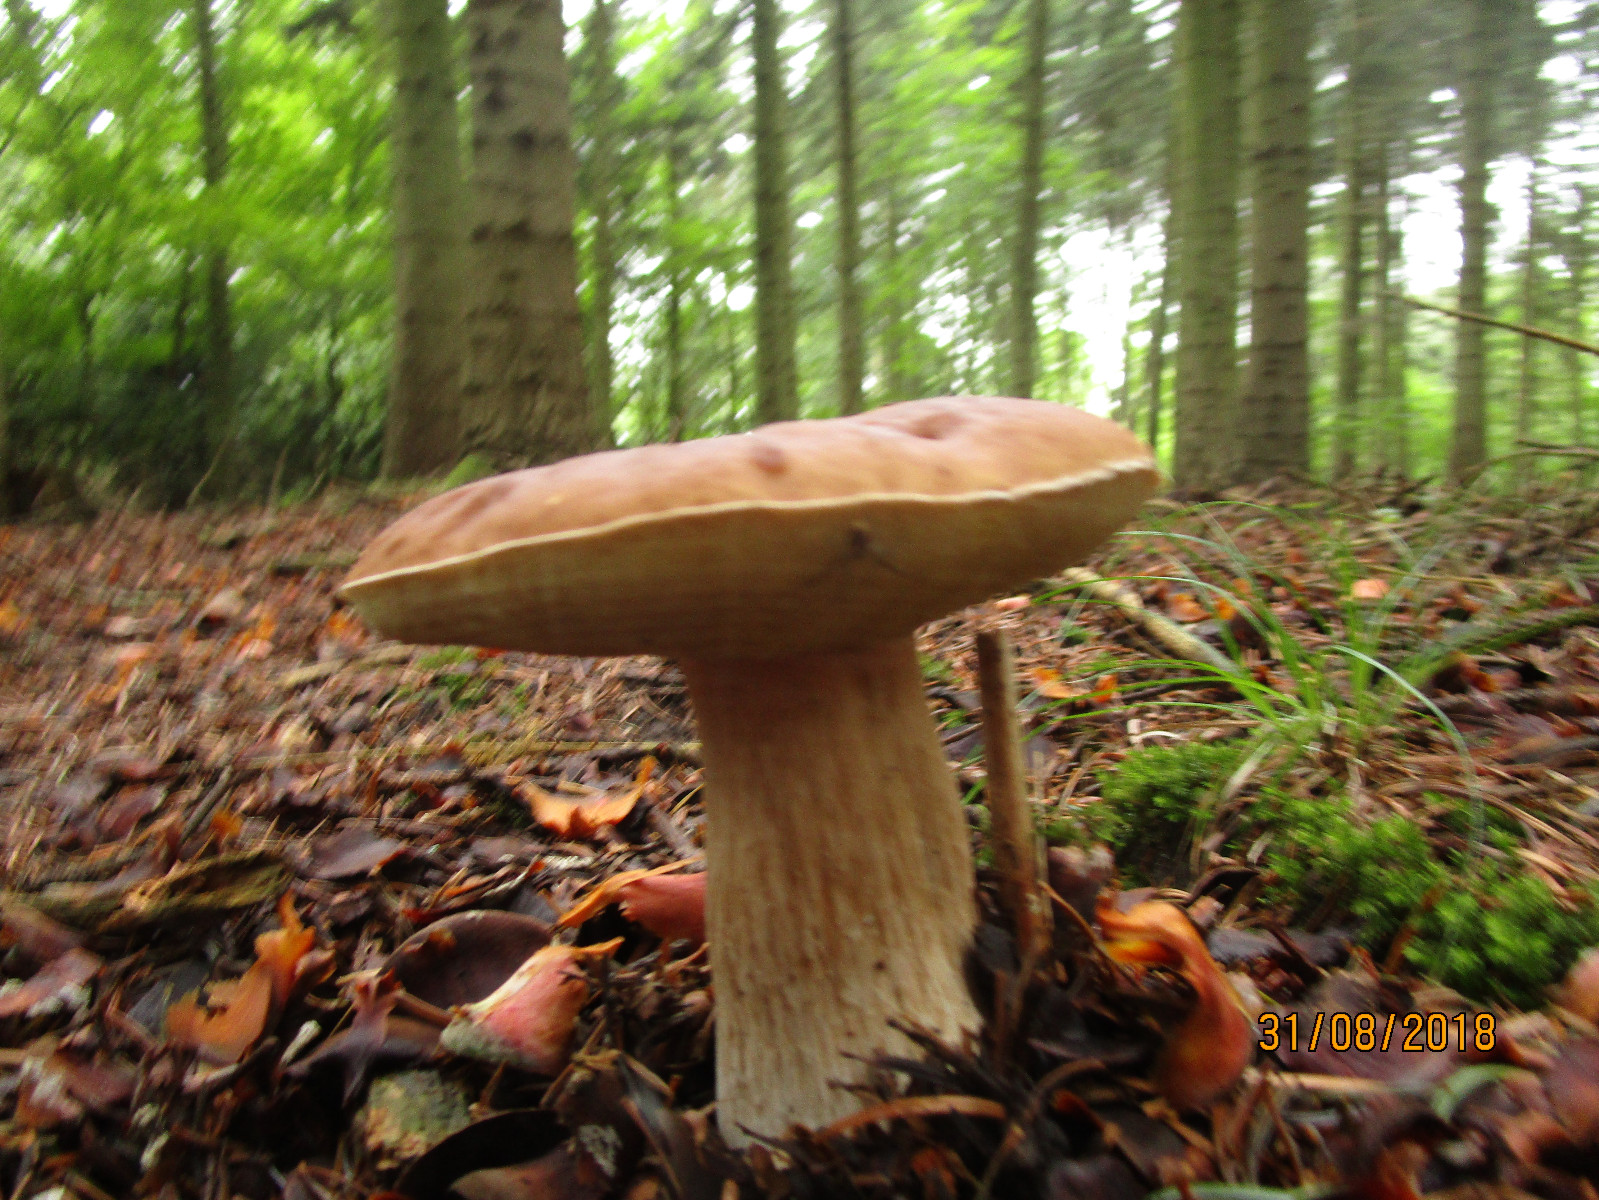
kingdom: Fungi
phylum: Basidiomycota
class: Agaricomycetes
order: Boletales
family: Boletaceae
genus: Boletus
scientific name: Boletus edulis
